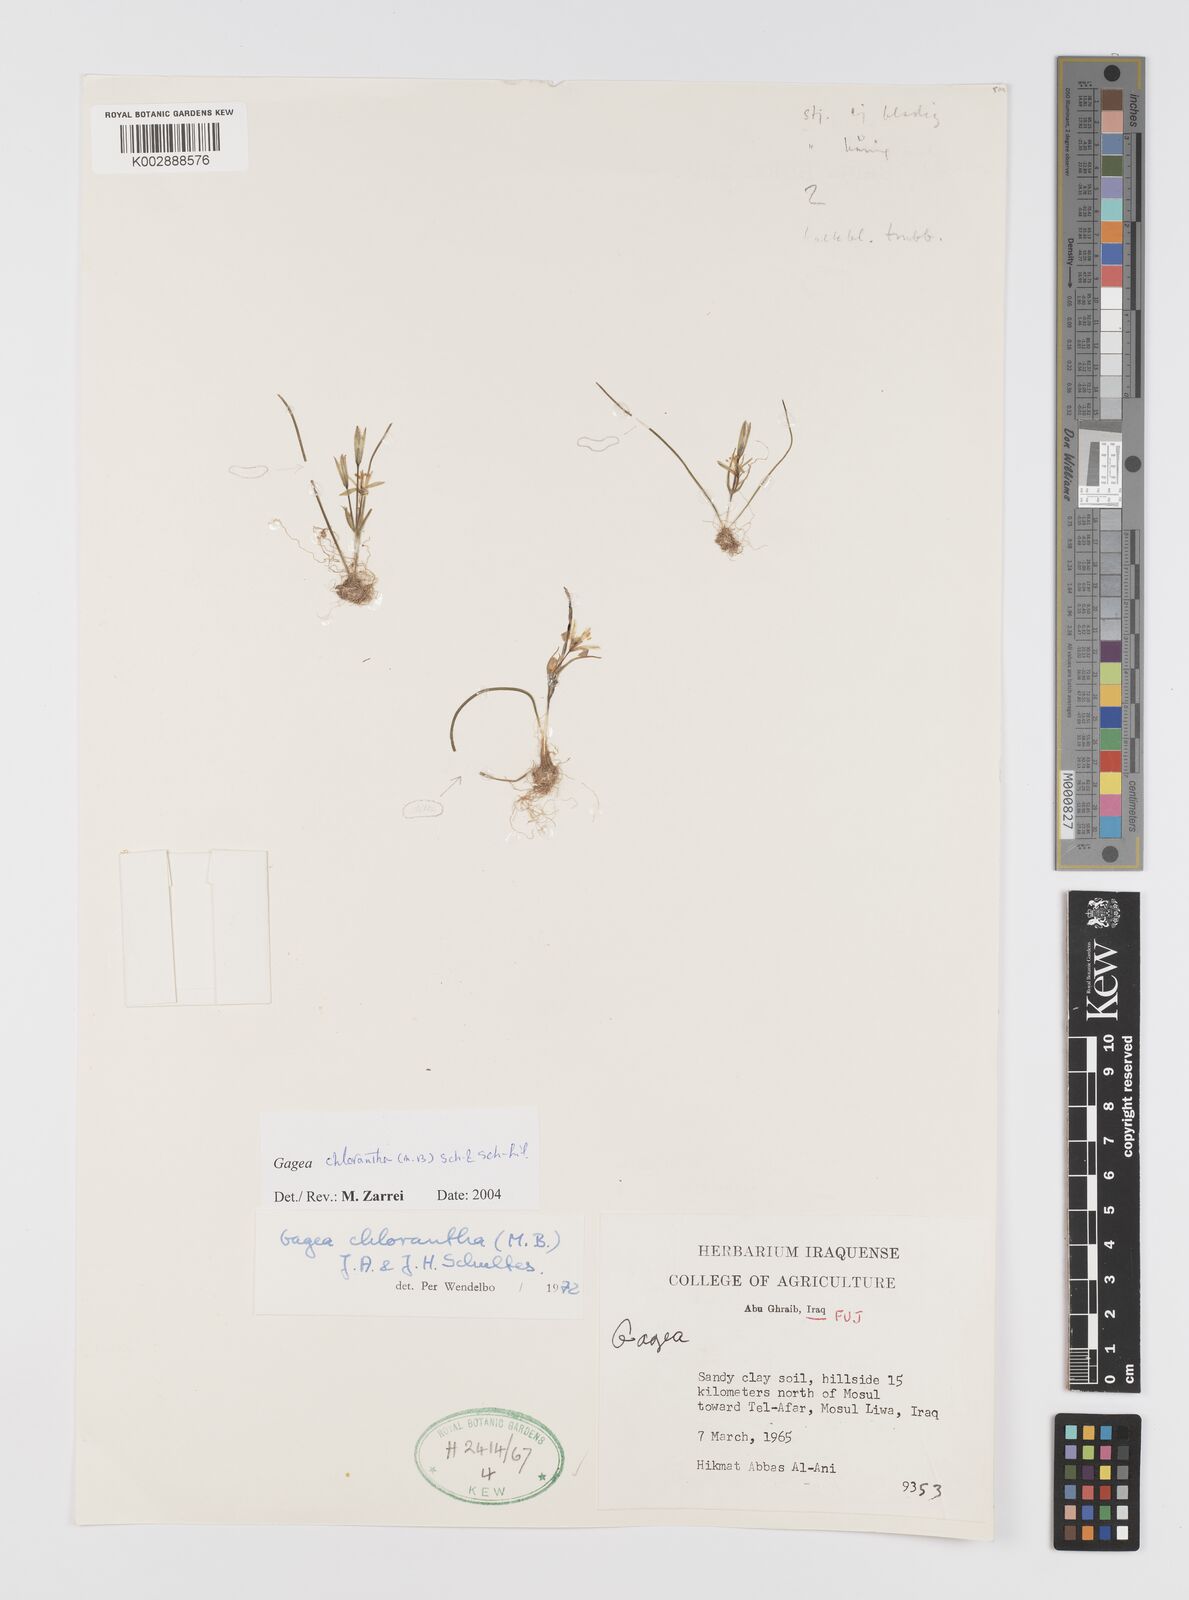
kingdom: Plantae
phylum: Tracheophyta
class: Liliopsida
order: Liliales
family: Liliaceae
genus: Gagea
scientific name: Gagea chlorantha
